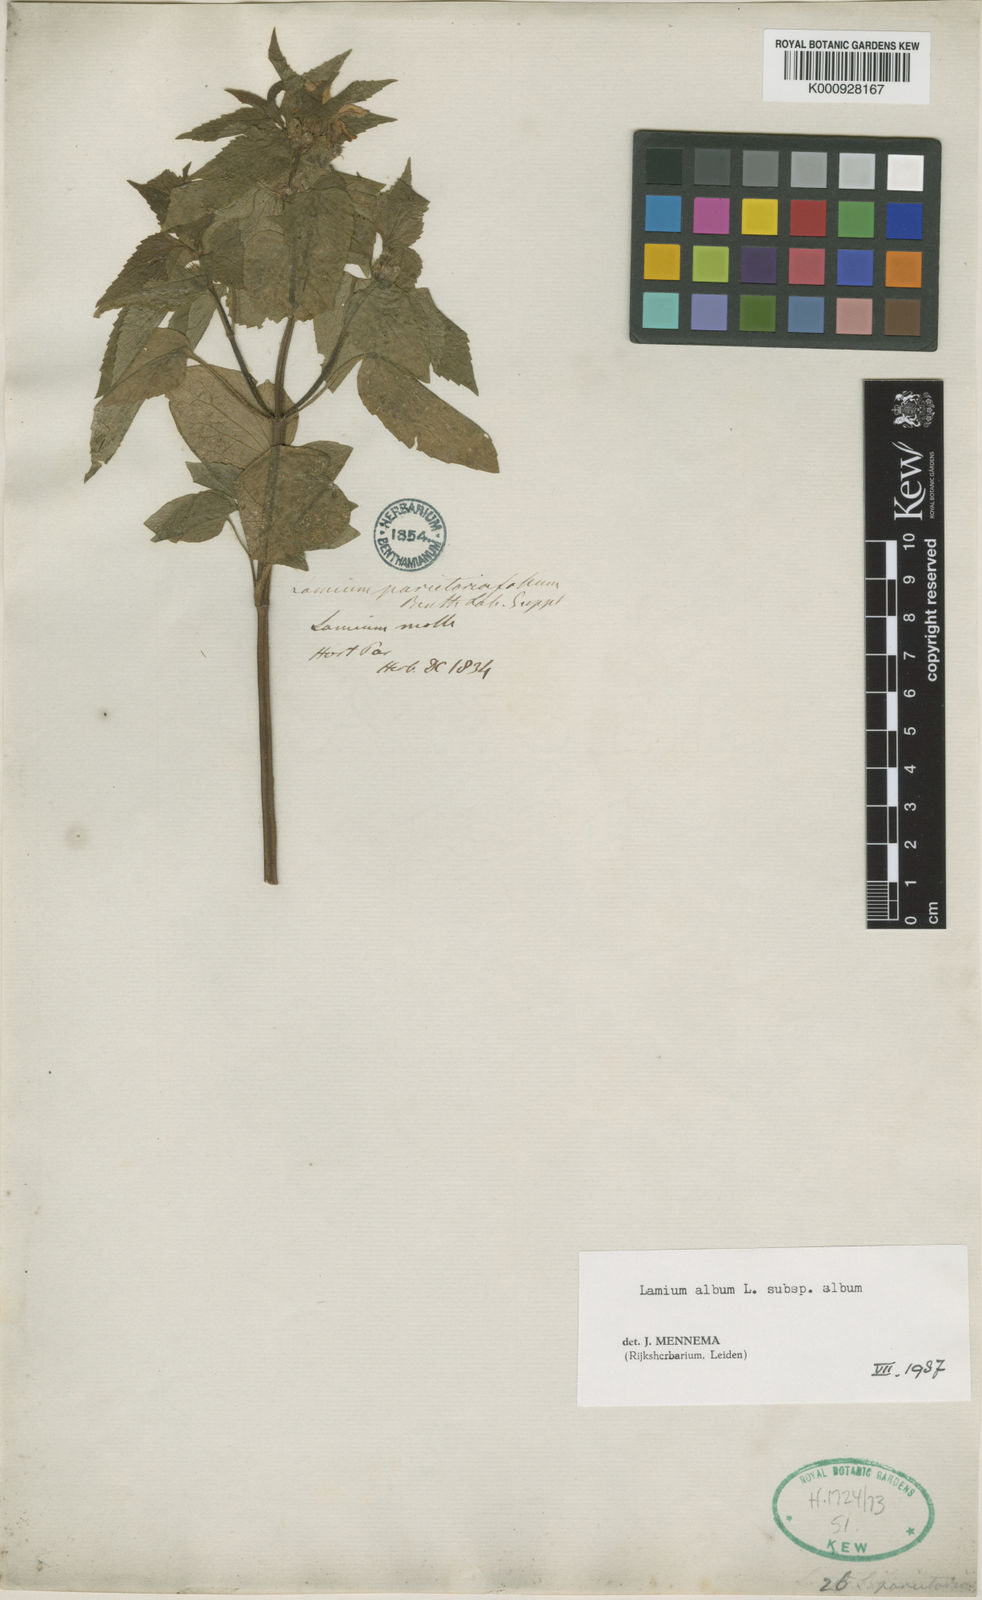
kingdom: Plantae
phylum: Tracheophyta
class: Magnoliopsida
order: Lamiales
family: Lamiaceae
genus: Lamium
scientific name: Lamium album
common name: White dead-nettle
